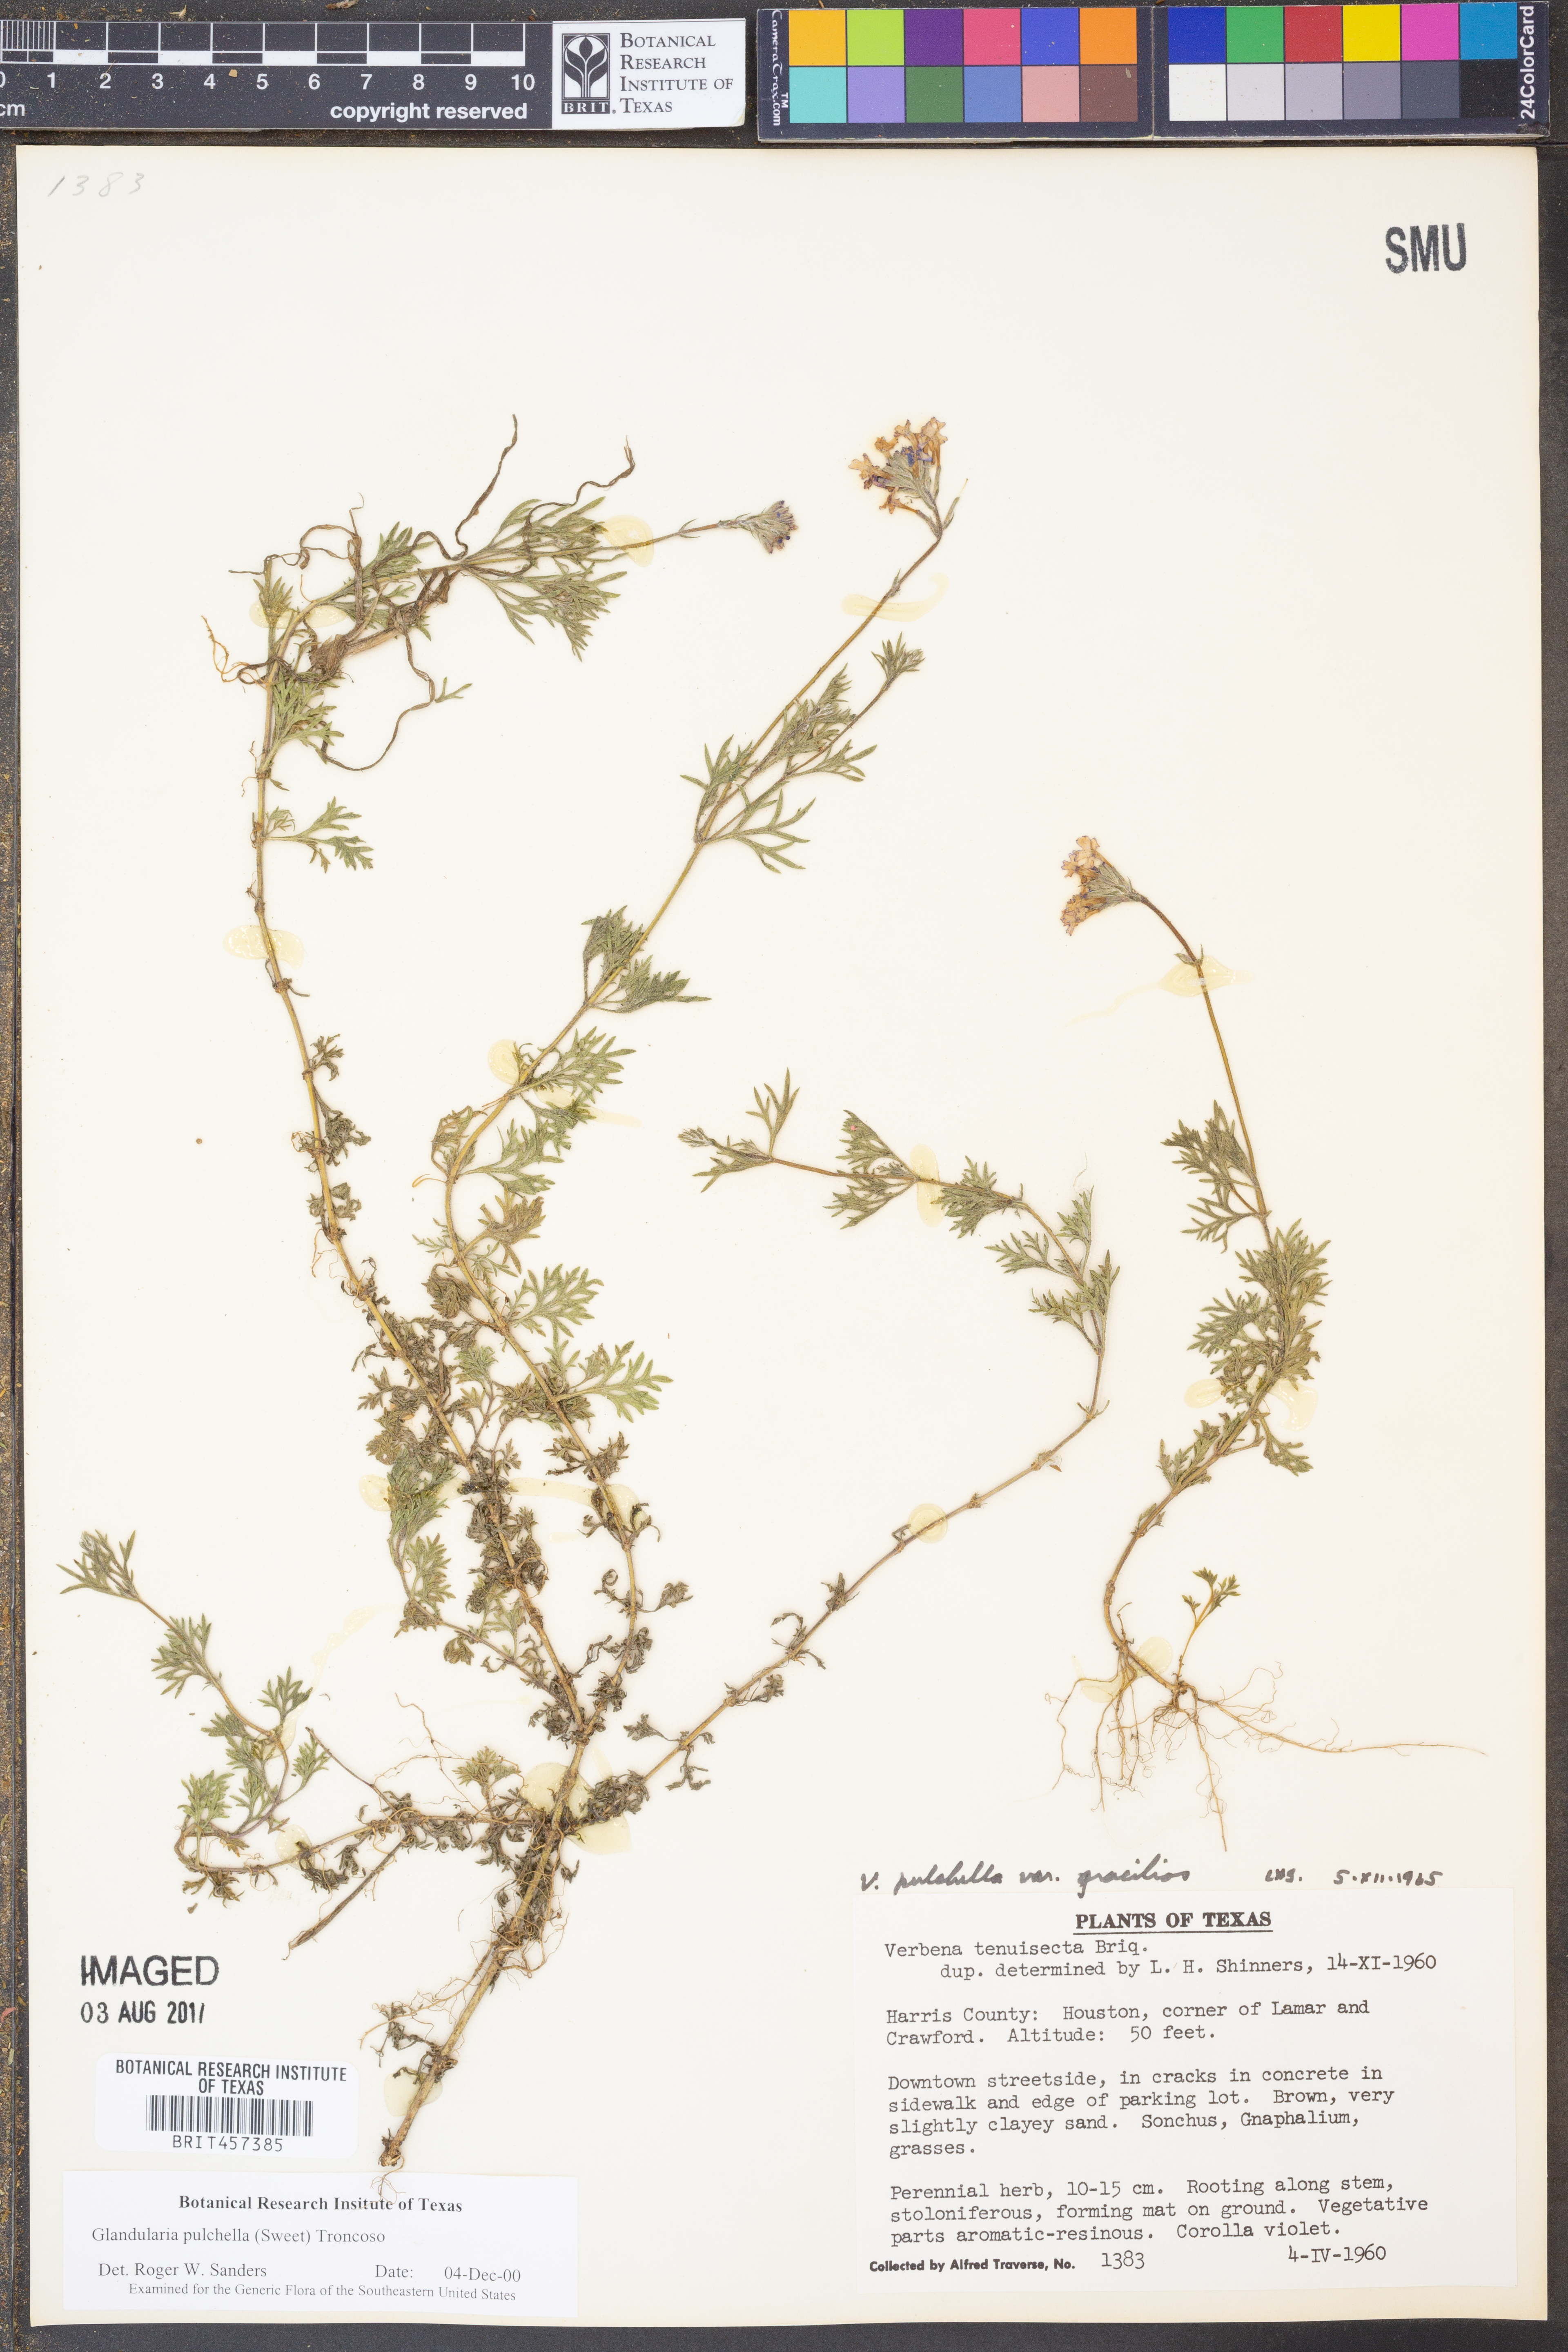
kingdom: Plantae
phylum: Tracheophyta
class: Magnoliopsida
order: Lamiales
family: Verbenaceae
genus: Verbena
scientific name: Verbena tenera
